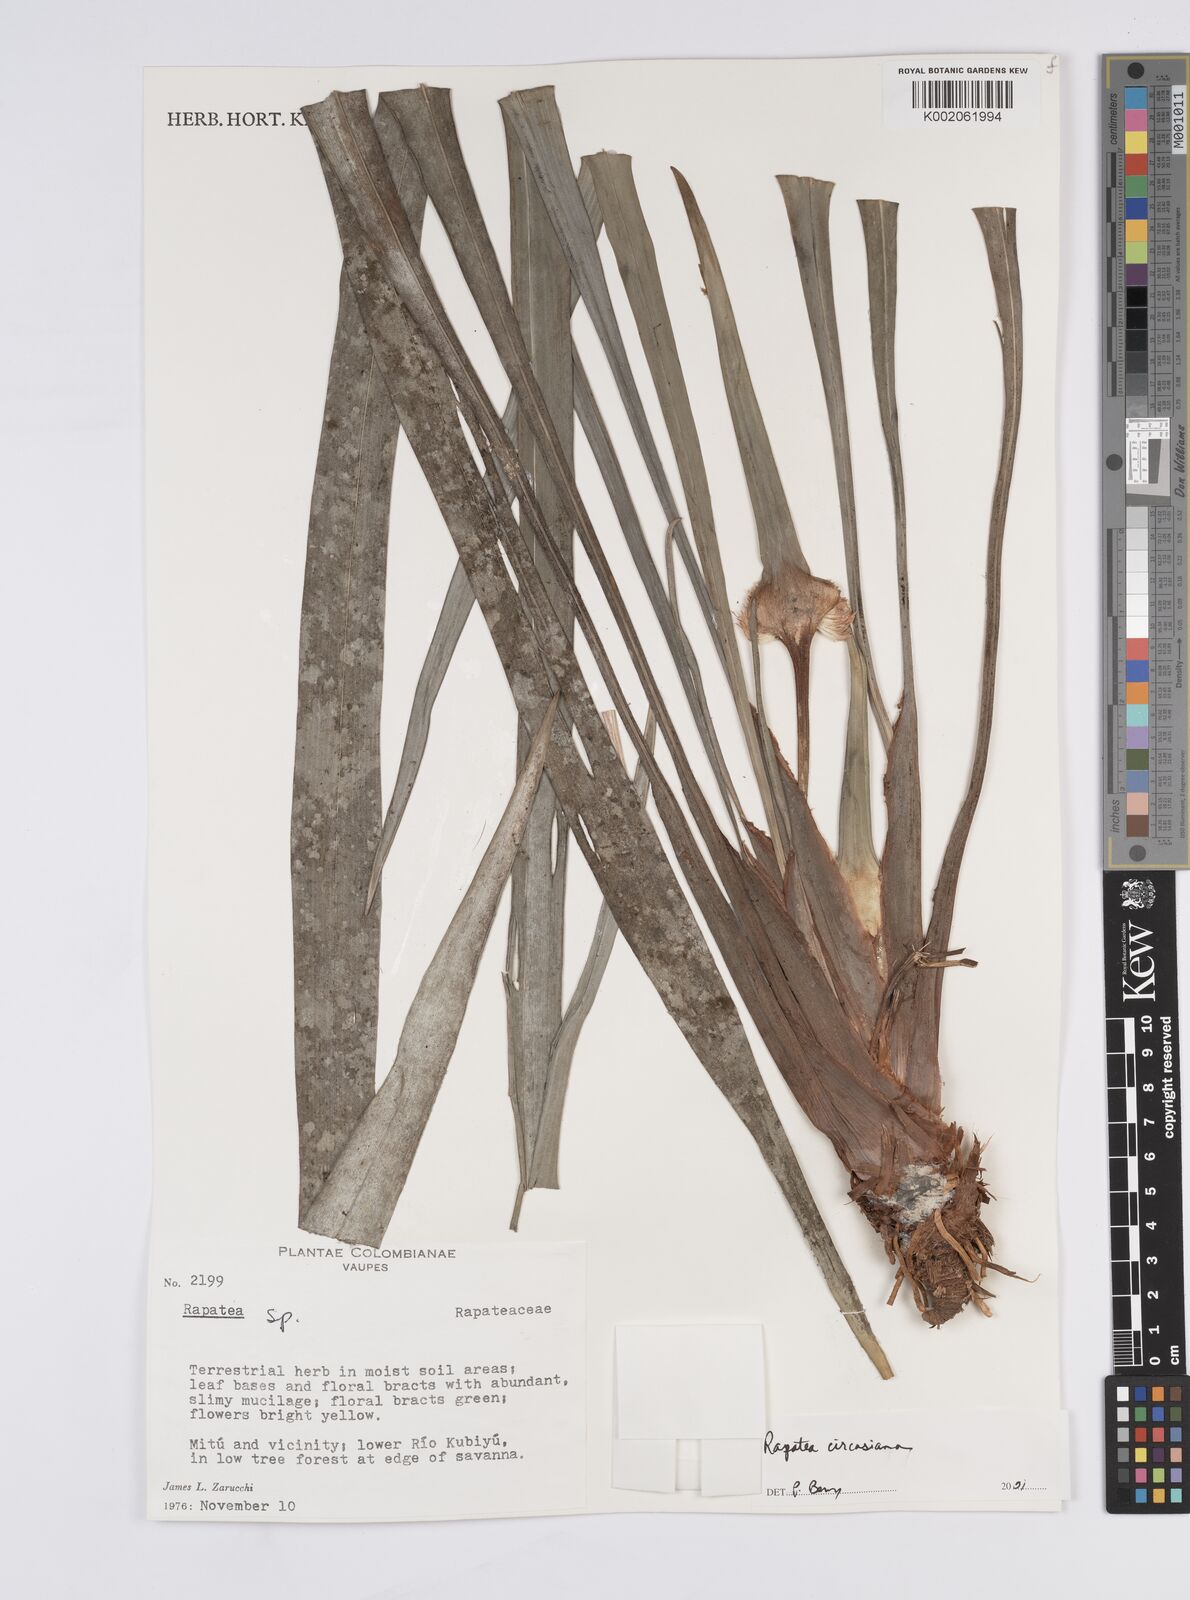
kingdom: Plantae
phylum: Tracheophyta
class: Liliopsida
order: Poales
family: Rapateaceae
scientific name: Rapateaceae
